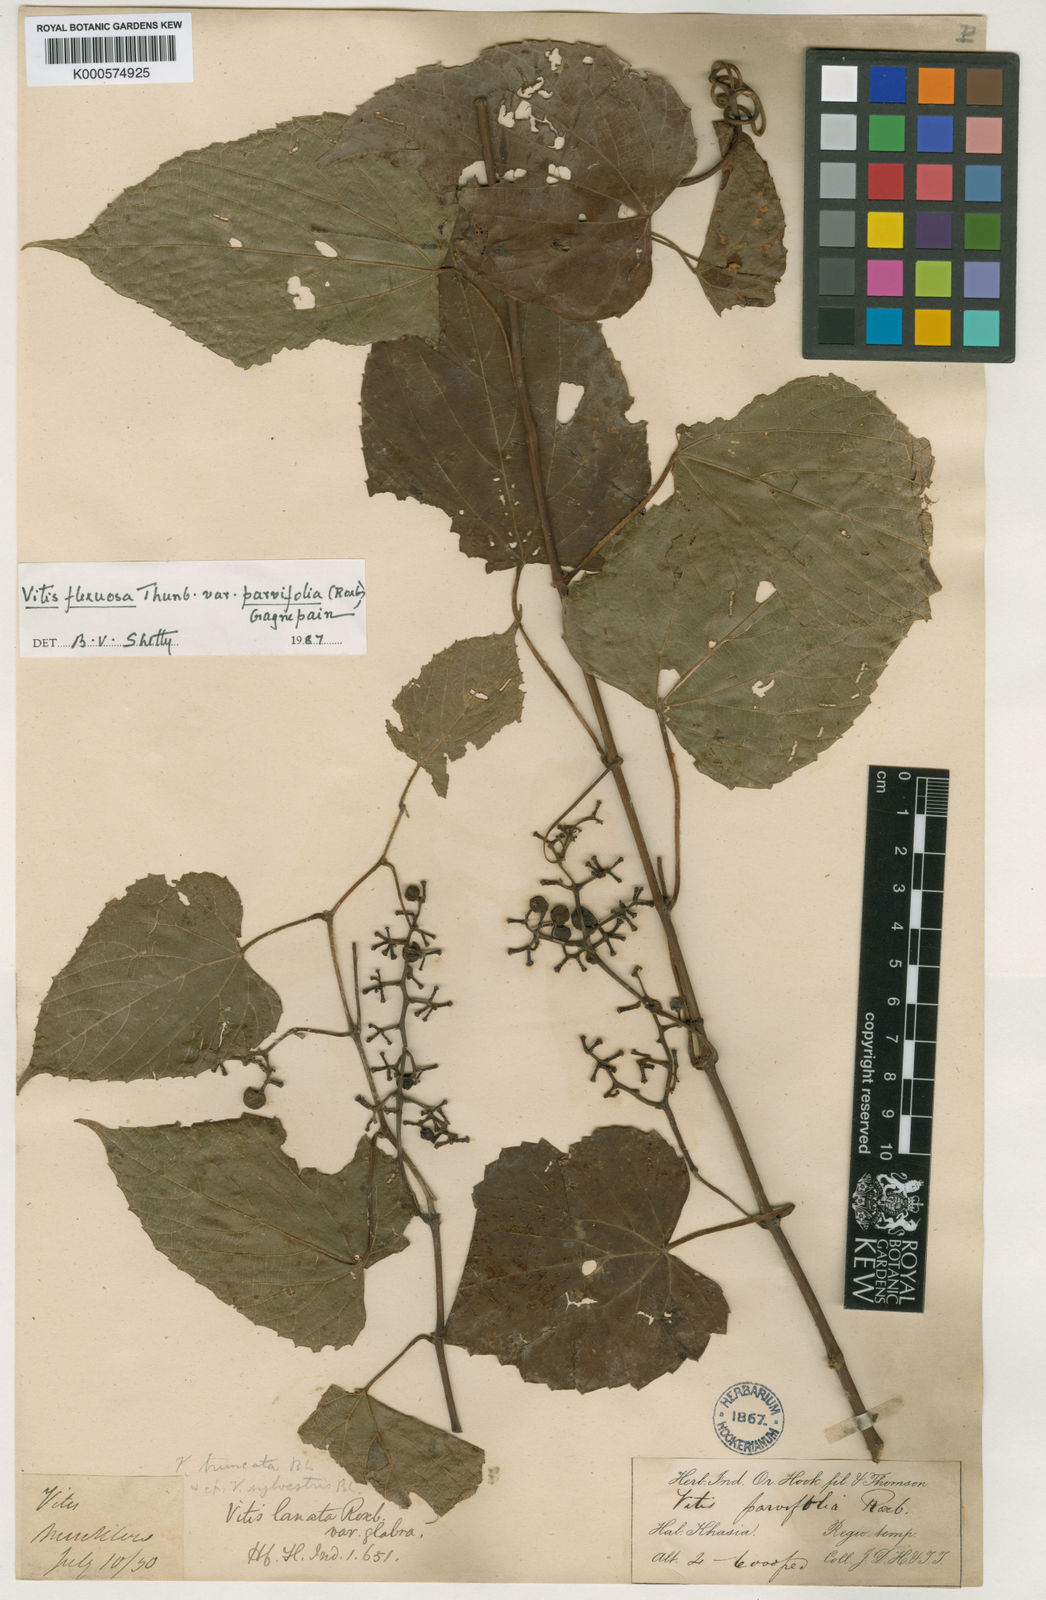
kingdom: Plantae
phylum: Tracheophyta
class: Magnoliopsida
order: Vitales
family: Vitaceae
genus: Vitis
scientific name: Vitis flexuosa
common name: Creeping grape
